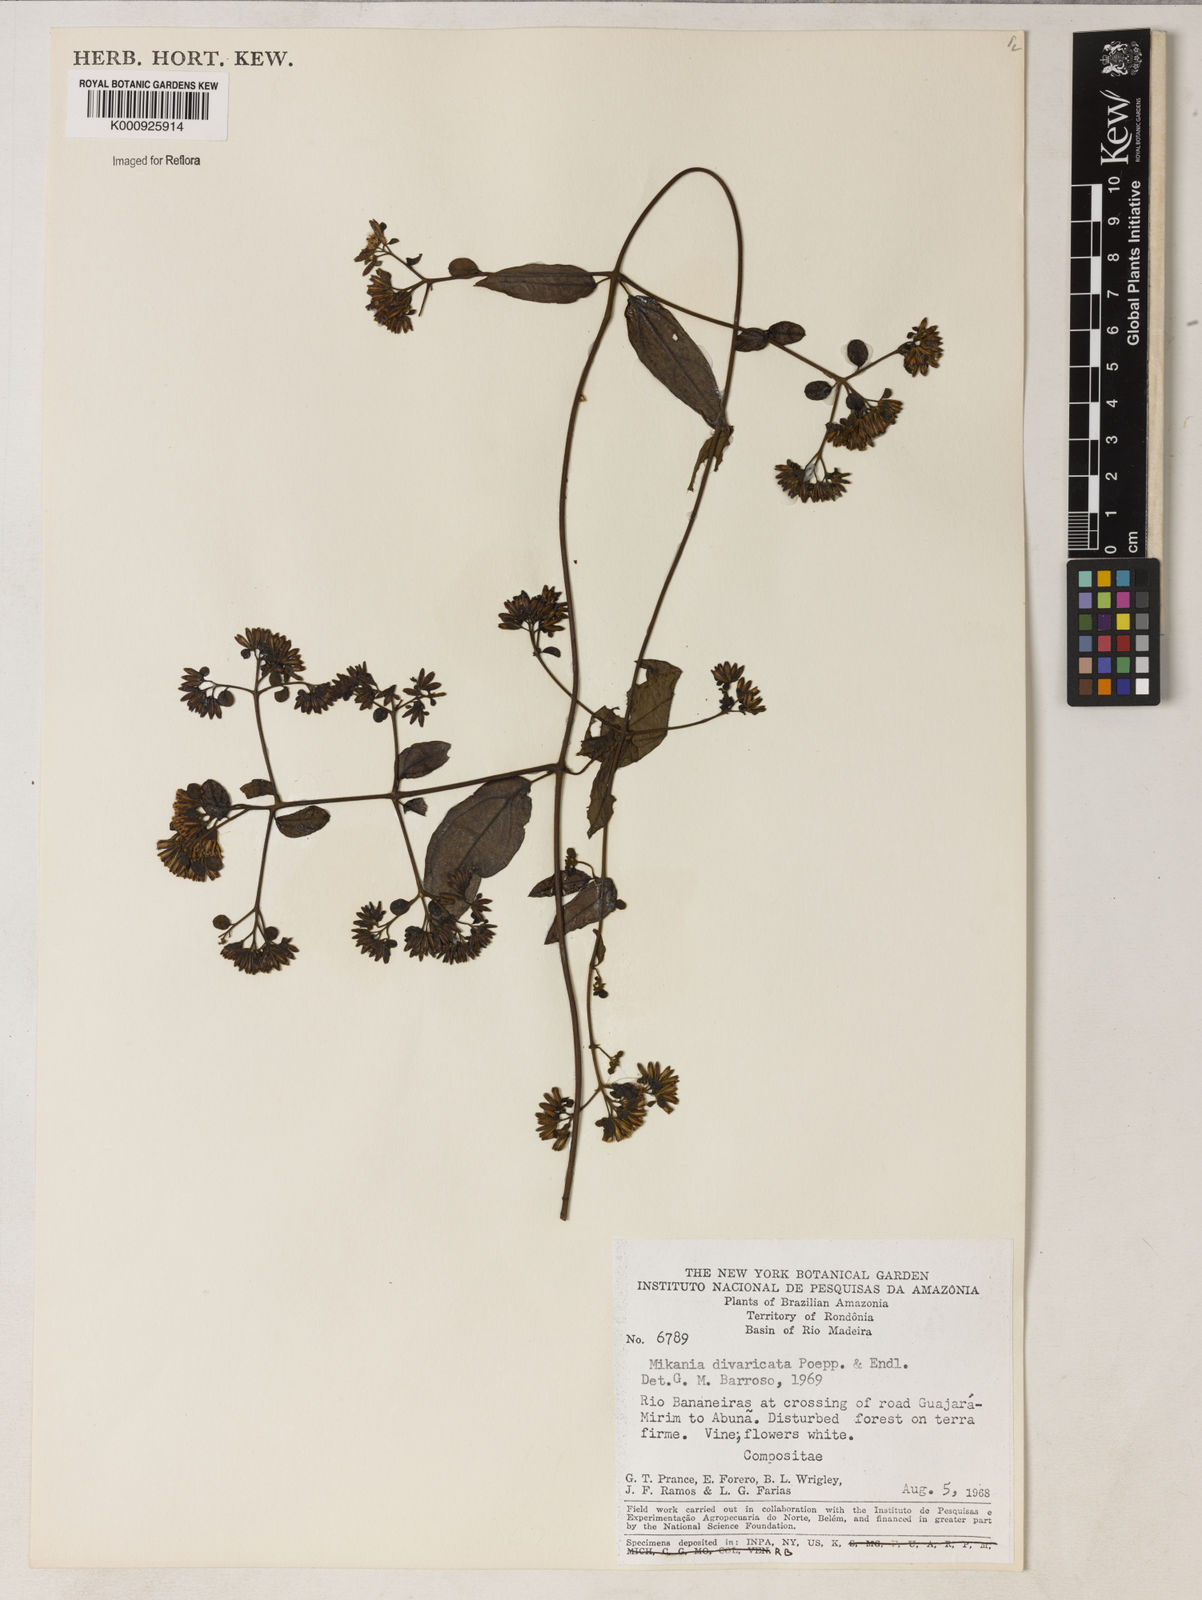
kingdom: Plantae
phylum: Tracheophyta
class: Magnoliopsida
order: Asterales
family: Asteraceae
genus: Mikania
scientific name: Mikania parviflora
